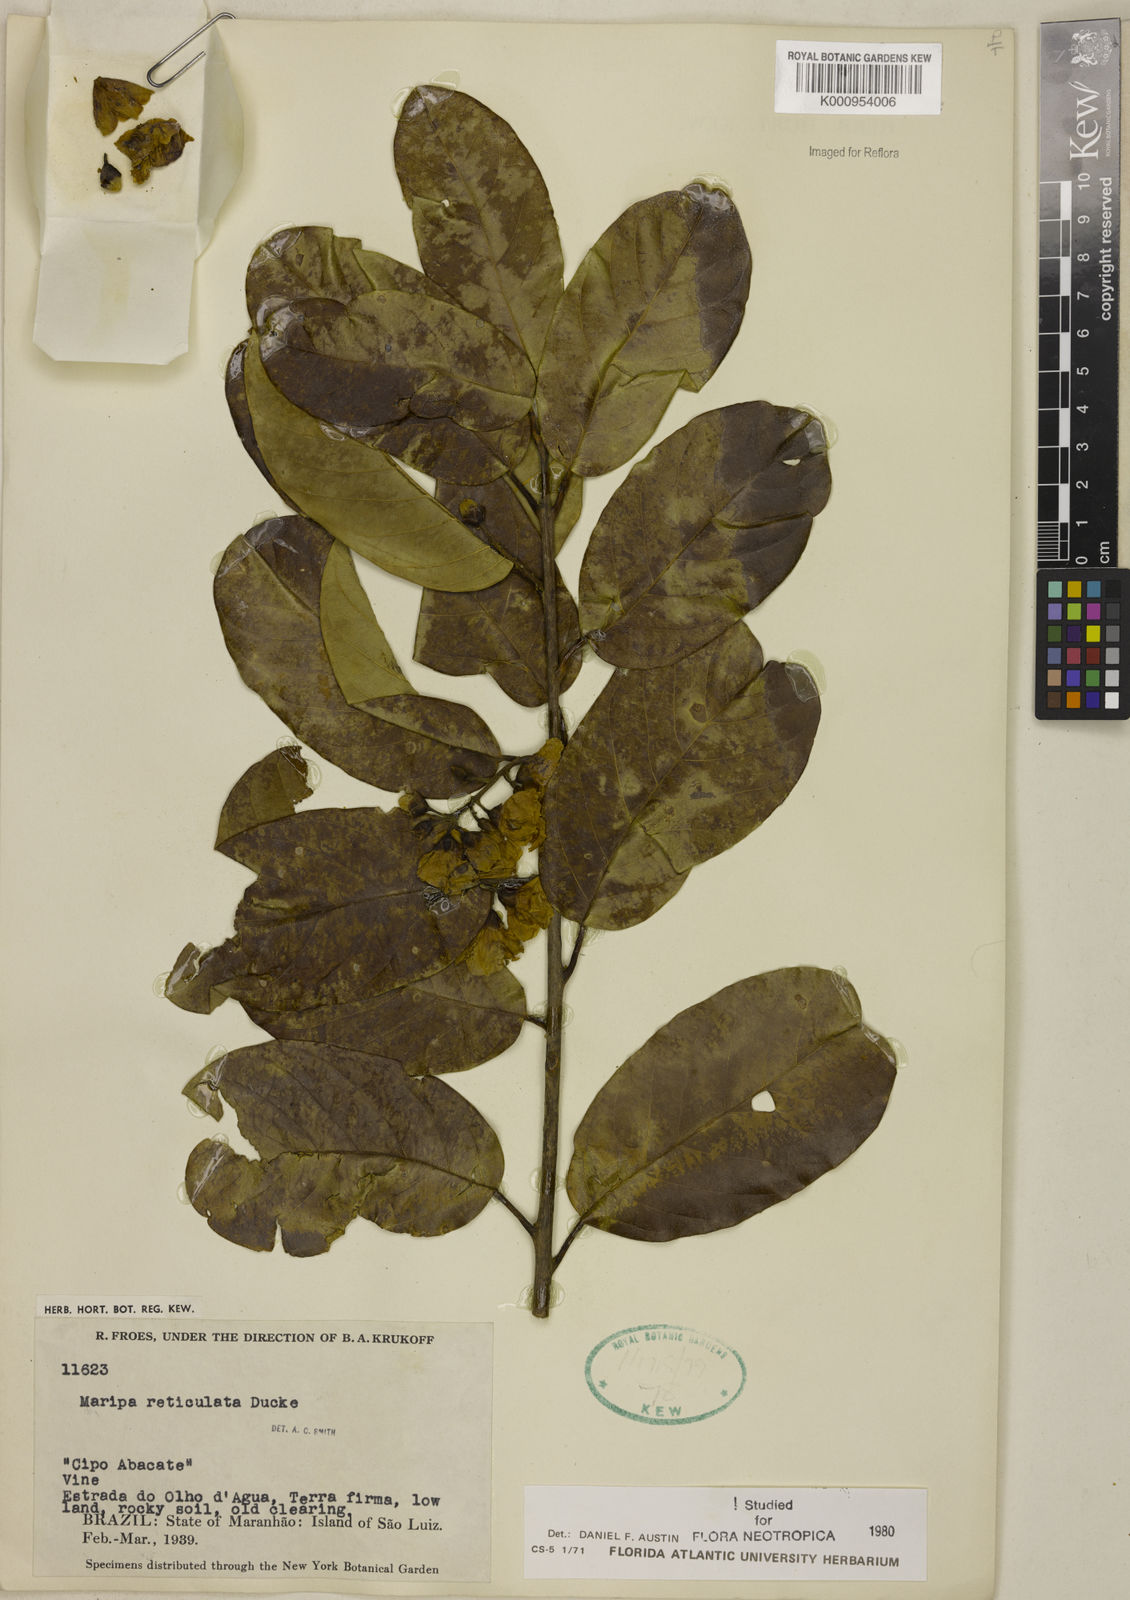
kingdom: Plantae
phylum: Tracheophyta
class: Magnoliopsida
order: Solanales
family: Convolvulaceae
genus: Maripa
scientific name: Maripa reticulata
